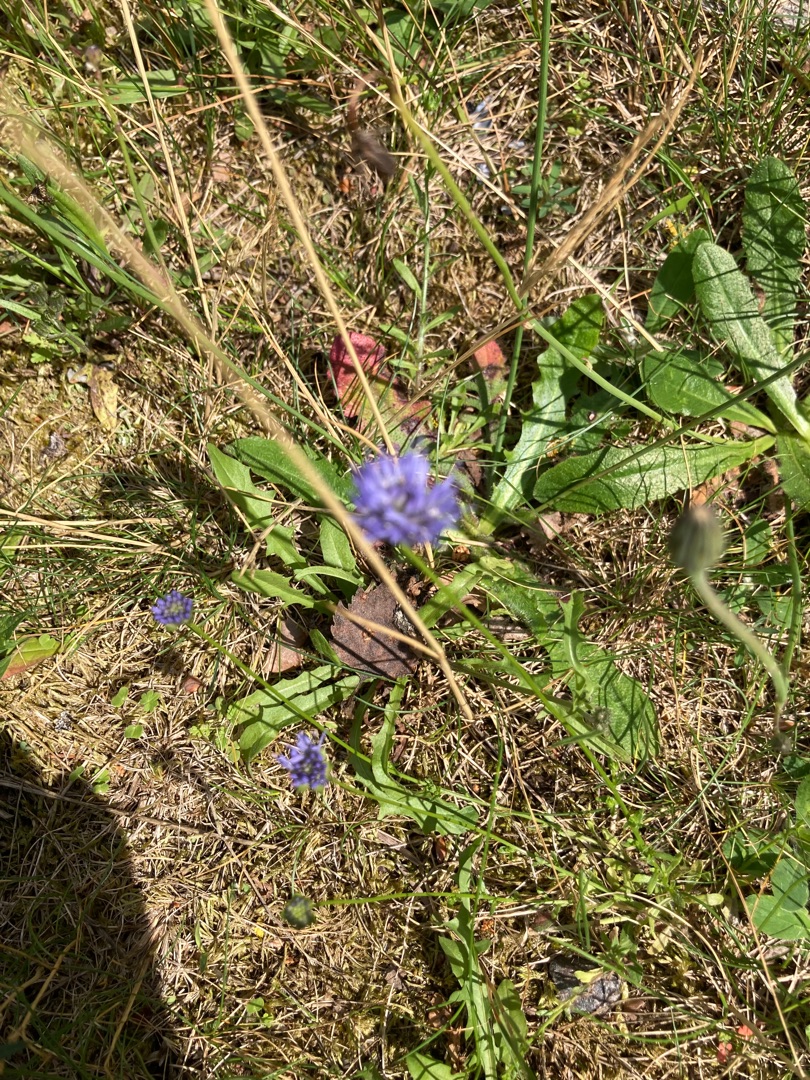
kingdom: Plantae
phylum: Tracheophyta
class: Magnoliopsida
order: Asterales
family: Campanulaceae
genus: Jasione
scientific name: Jasione montana
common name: Blåmunke
